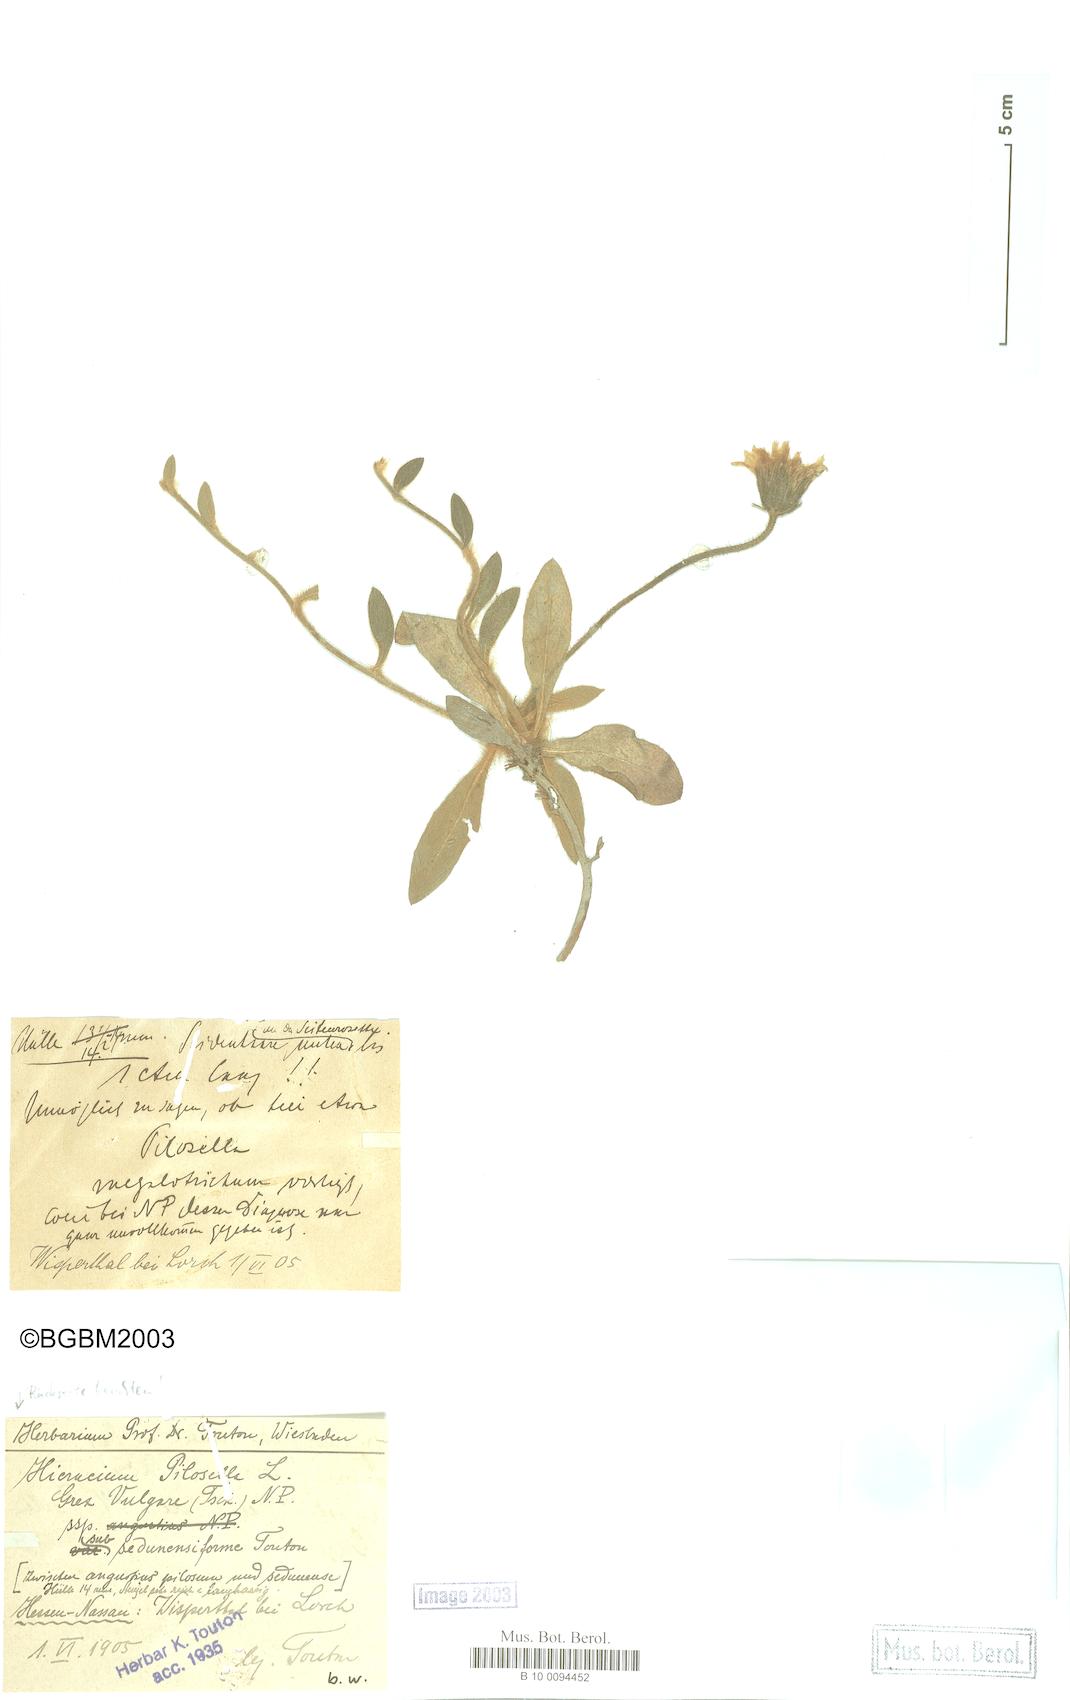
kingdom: Plantae
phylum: Tracheophyta
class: Magnoliopsida
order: Asterales
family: Asteraceae
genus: Pilosella
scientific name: Pilosella officinarum
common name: Mouse-ear hawkweed
